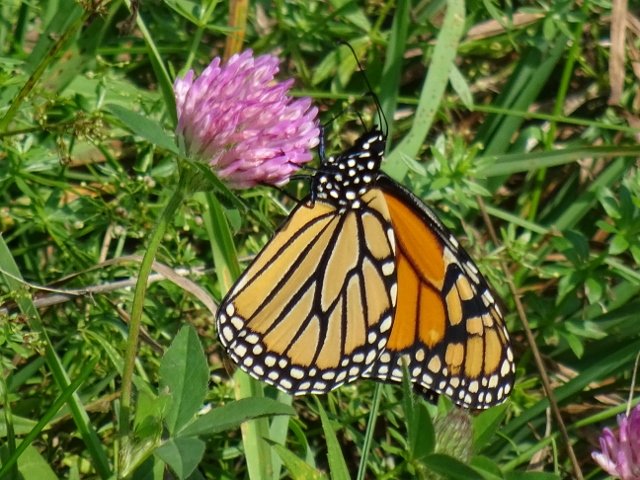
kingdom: Animalia
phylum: Arthropoda
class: Insecta
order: Lepidoptera
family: Nymphalidae
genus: Danaus
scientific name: Danaus plexippus
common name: Monarch
